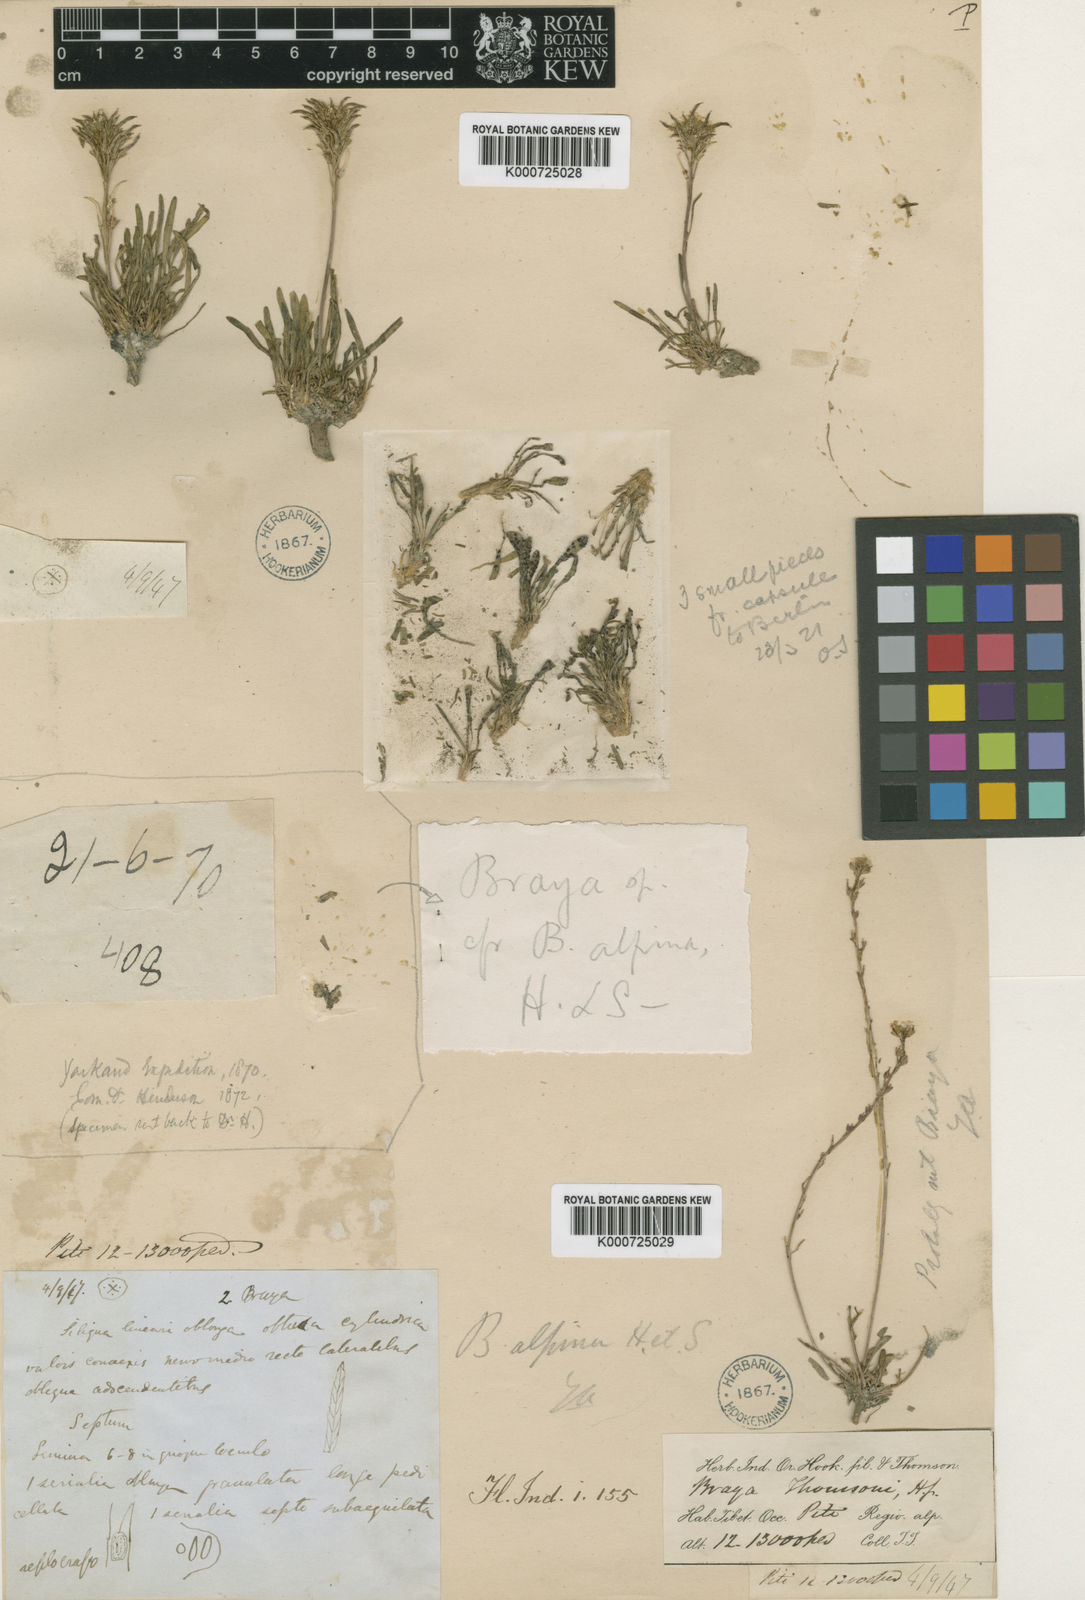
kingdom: Plantae
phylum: Tracheophyta
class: Magnoliopsida
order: Brassicales
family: Brassicaceae
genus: Braya
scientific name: Braya thomsonii
